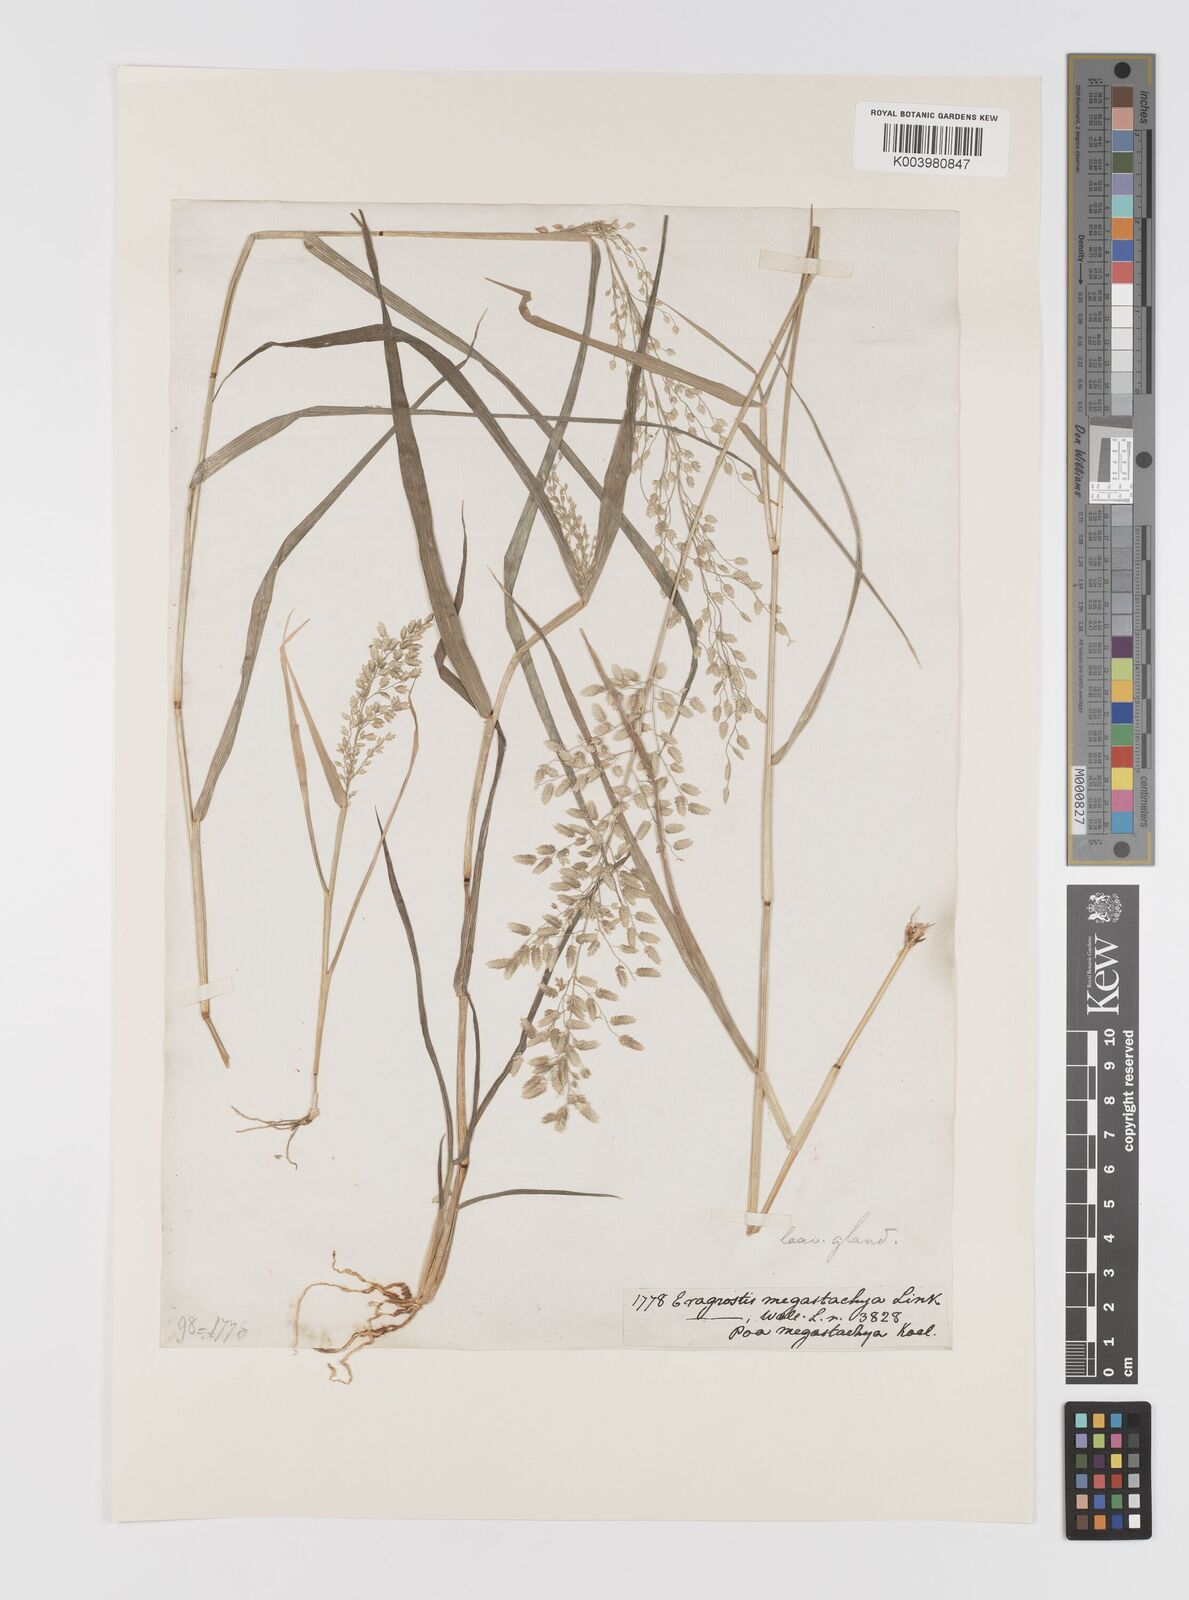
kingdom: Plantae
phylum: Tracheophyta
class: Liliopsida
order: Poales
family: Poaceae
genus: Eragrostis
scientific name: Eragrostis cilianensis
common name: Stinkgrass
